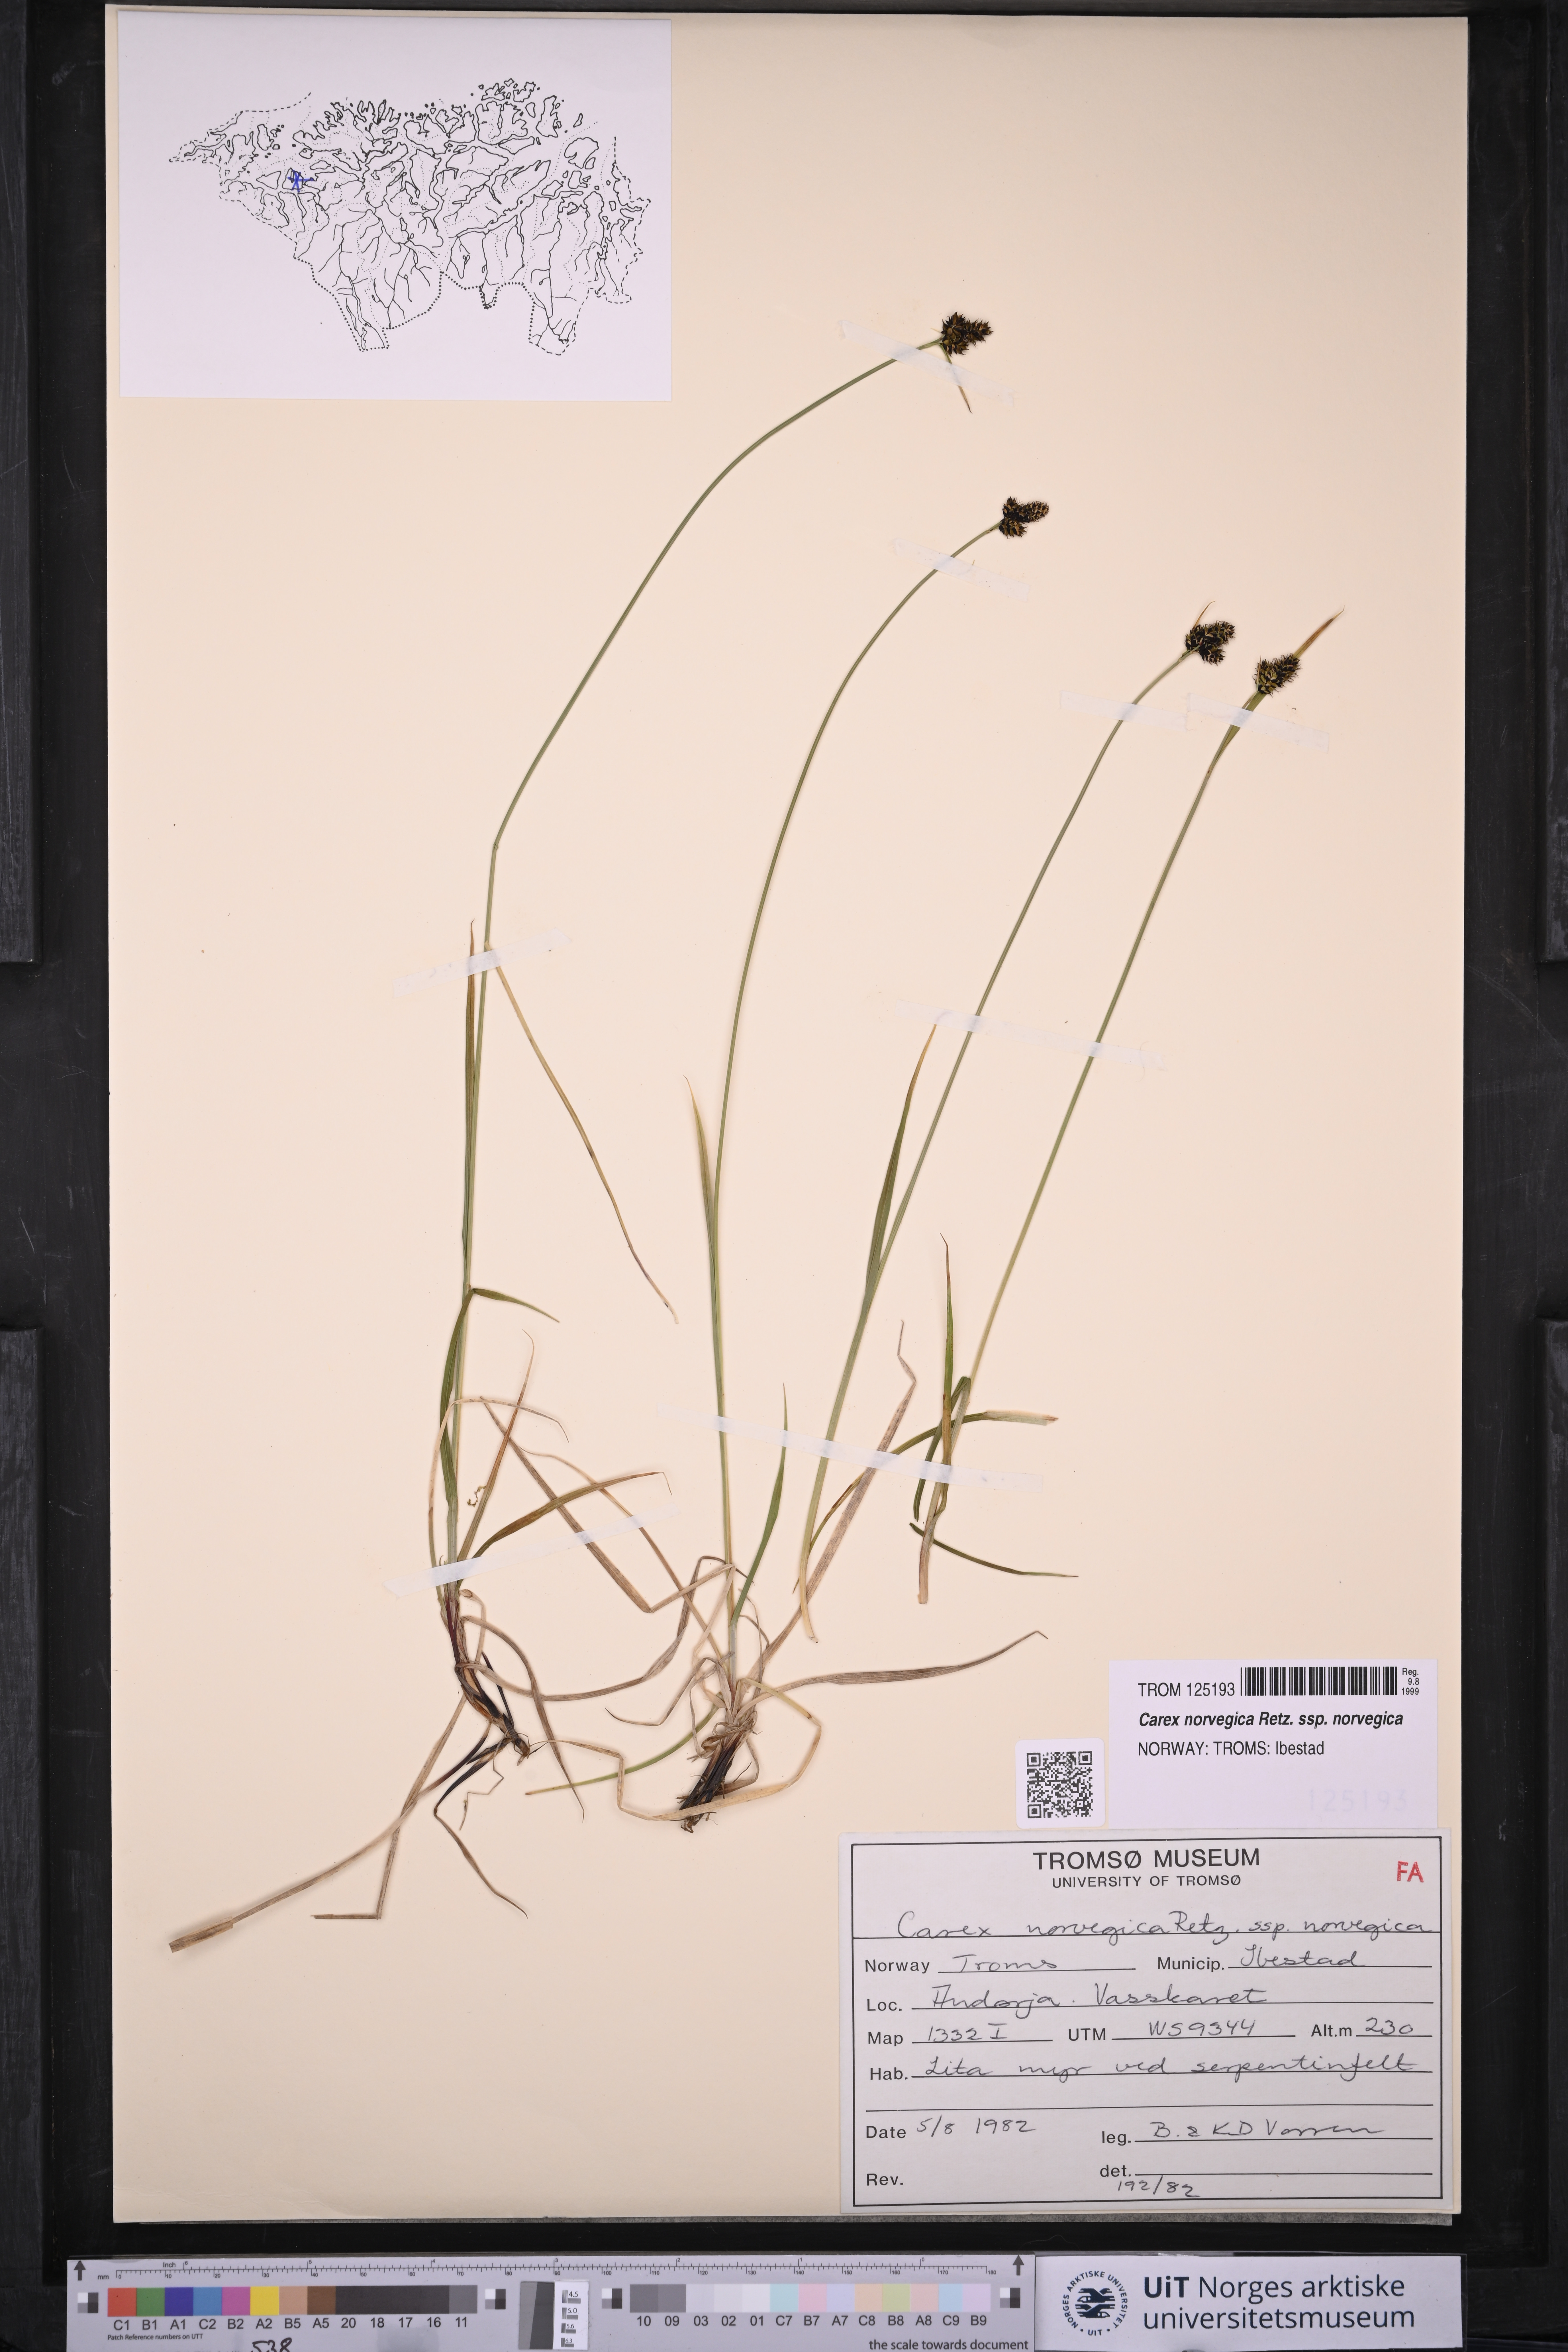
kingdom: Plantae
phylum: Tracheophyta
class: Liliopsida
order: Poales
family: Cyperaceae
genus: Carex
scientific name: Carex norvegica
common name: Close-headed alpine-sedge
